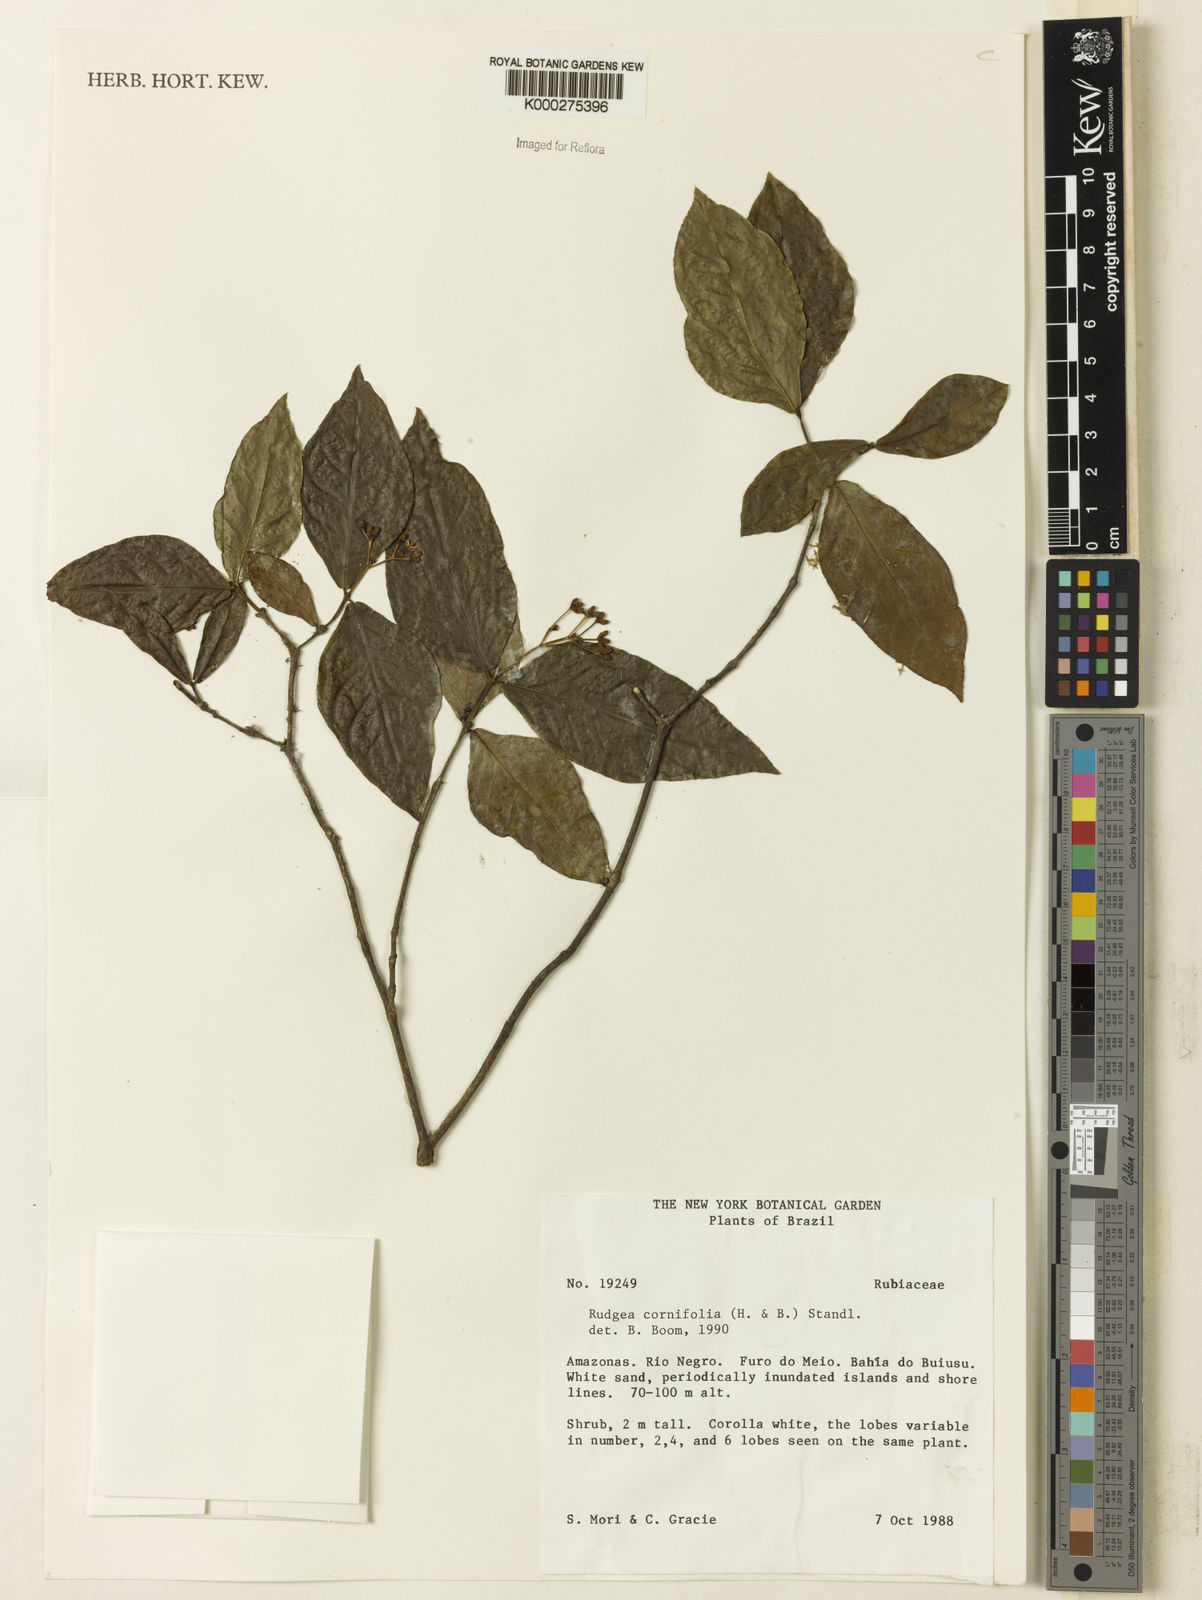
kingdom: Plantae
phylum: Tracheophyta
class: Magnoliopsida
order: Gentianales
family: Rubiaceae
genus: Rudgea
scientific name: Rudgea cornifolia
